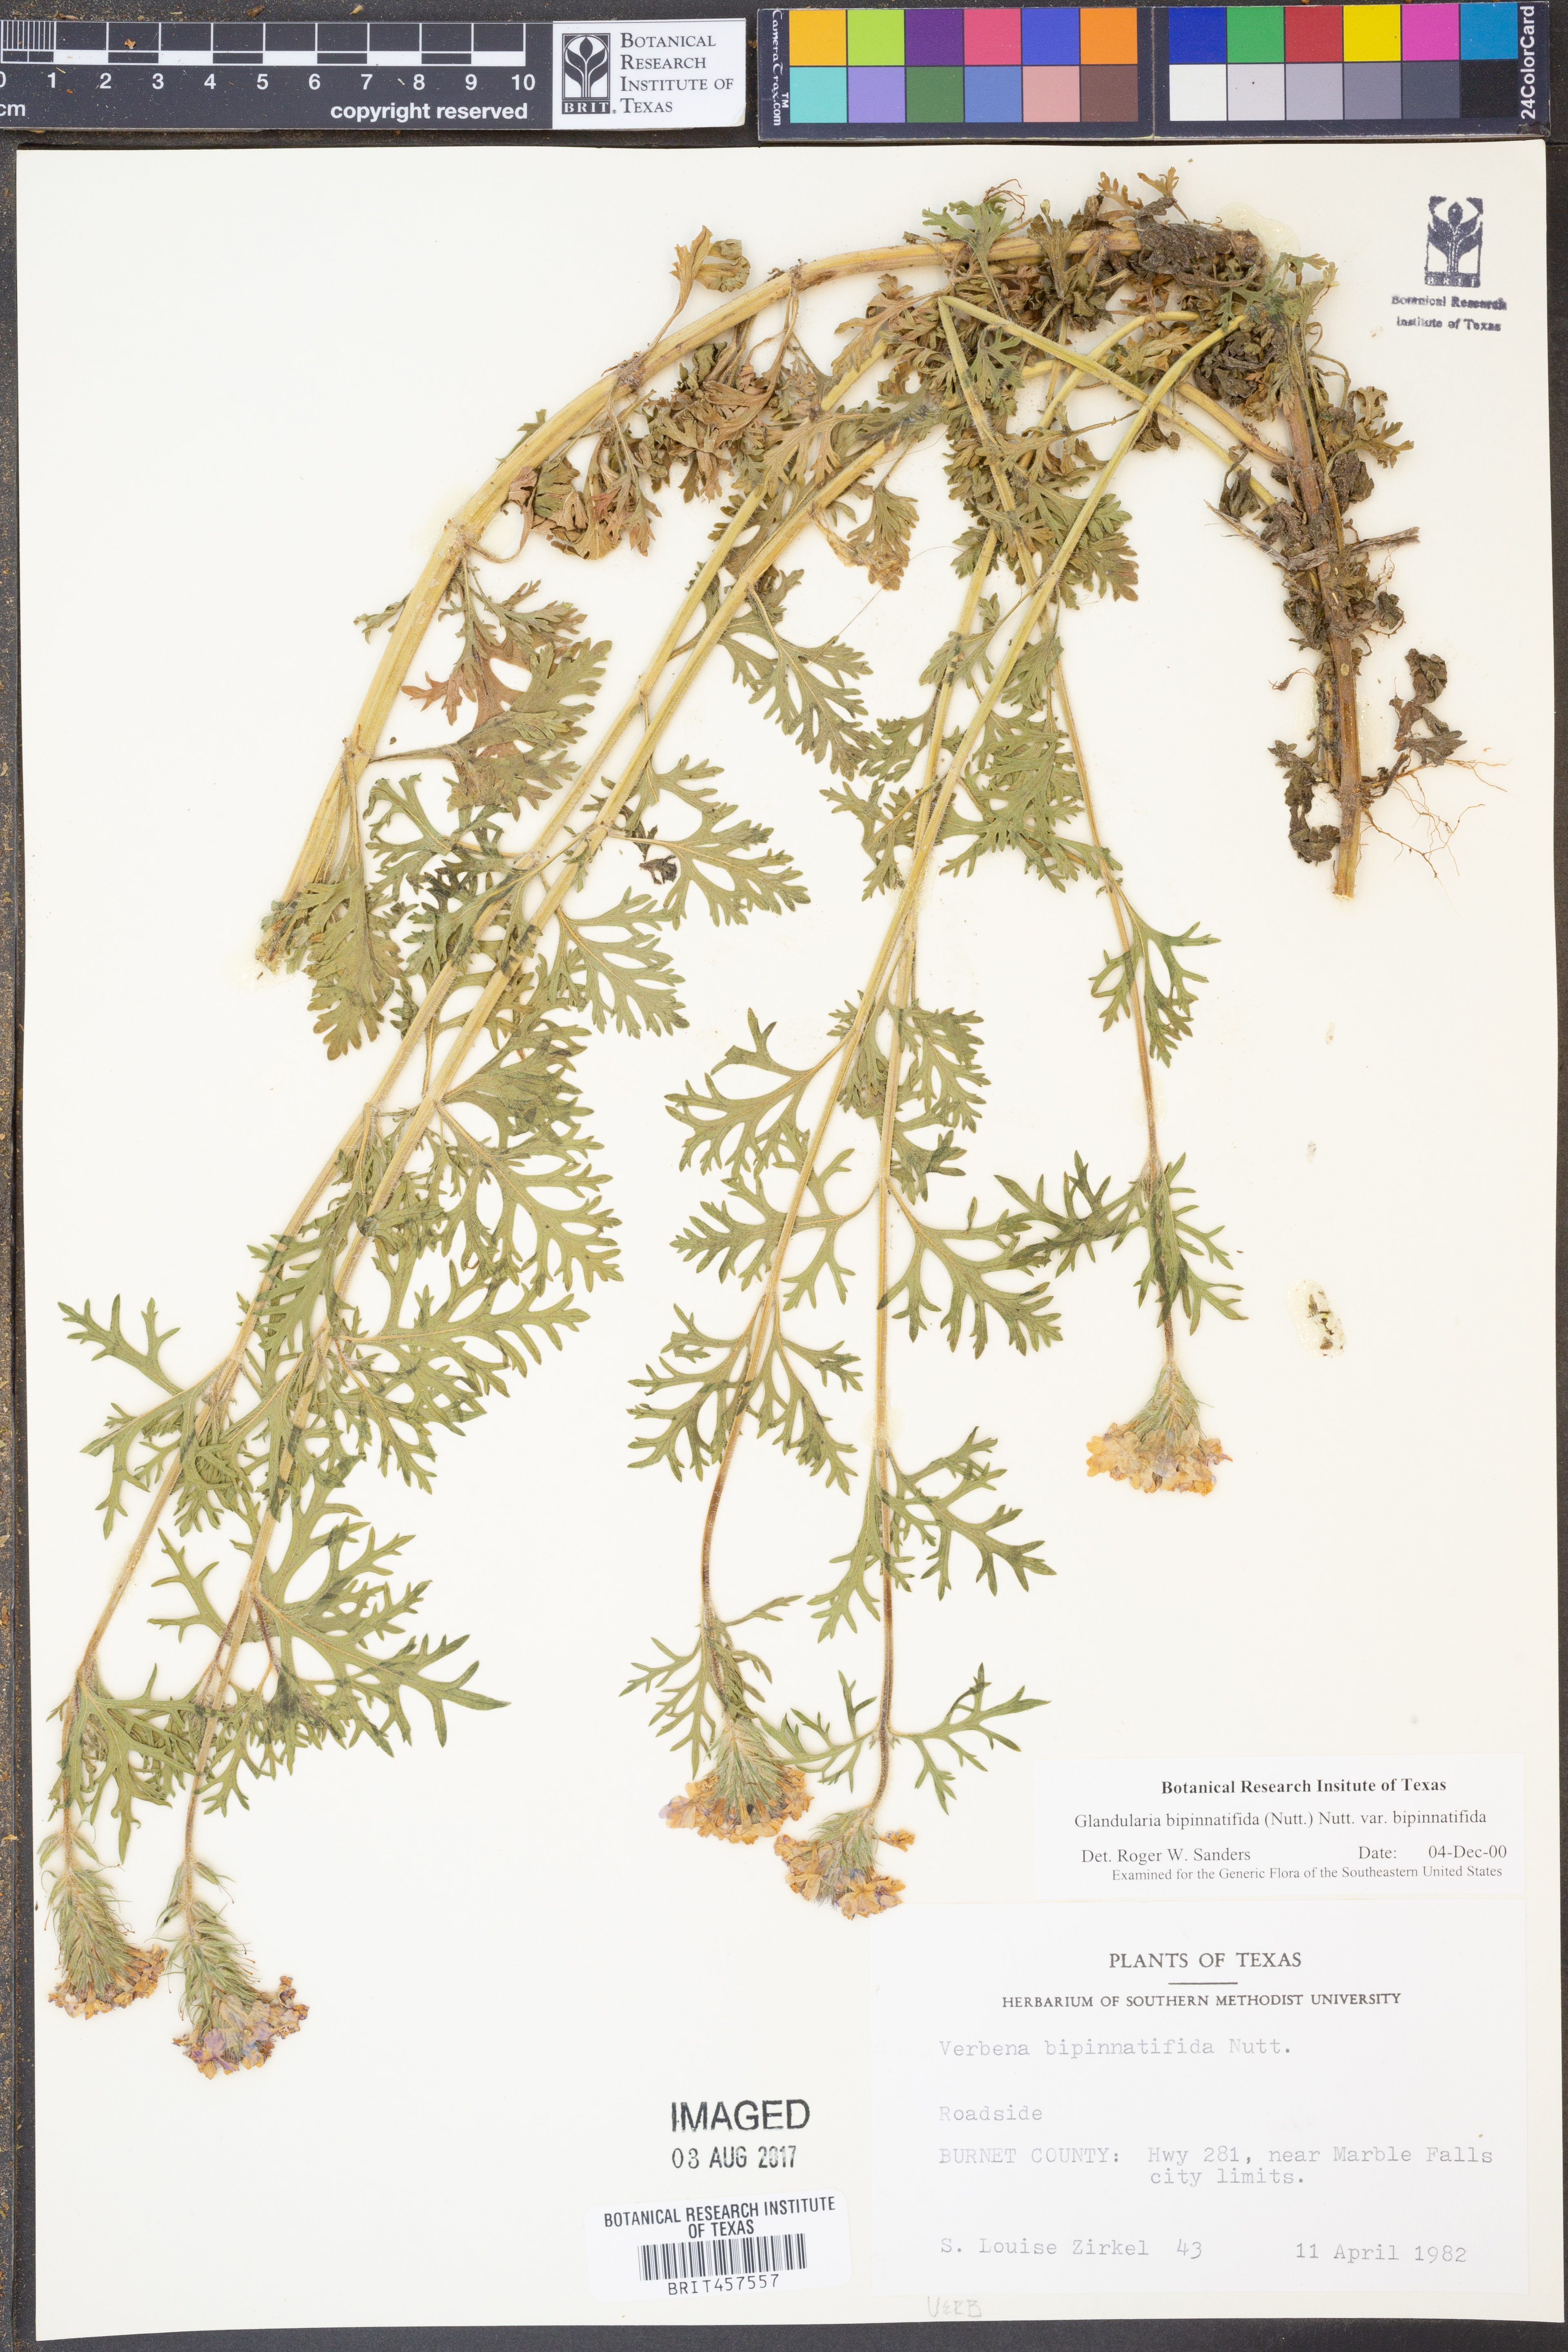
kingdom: Plantae
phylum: Tracheophyta
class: Magnoliopsida
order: Lamiales
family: Verbenaceae
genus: Verbena
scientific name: Verbena bipinnatifida
